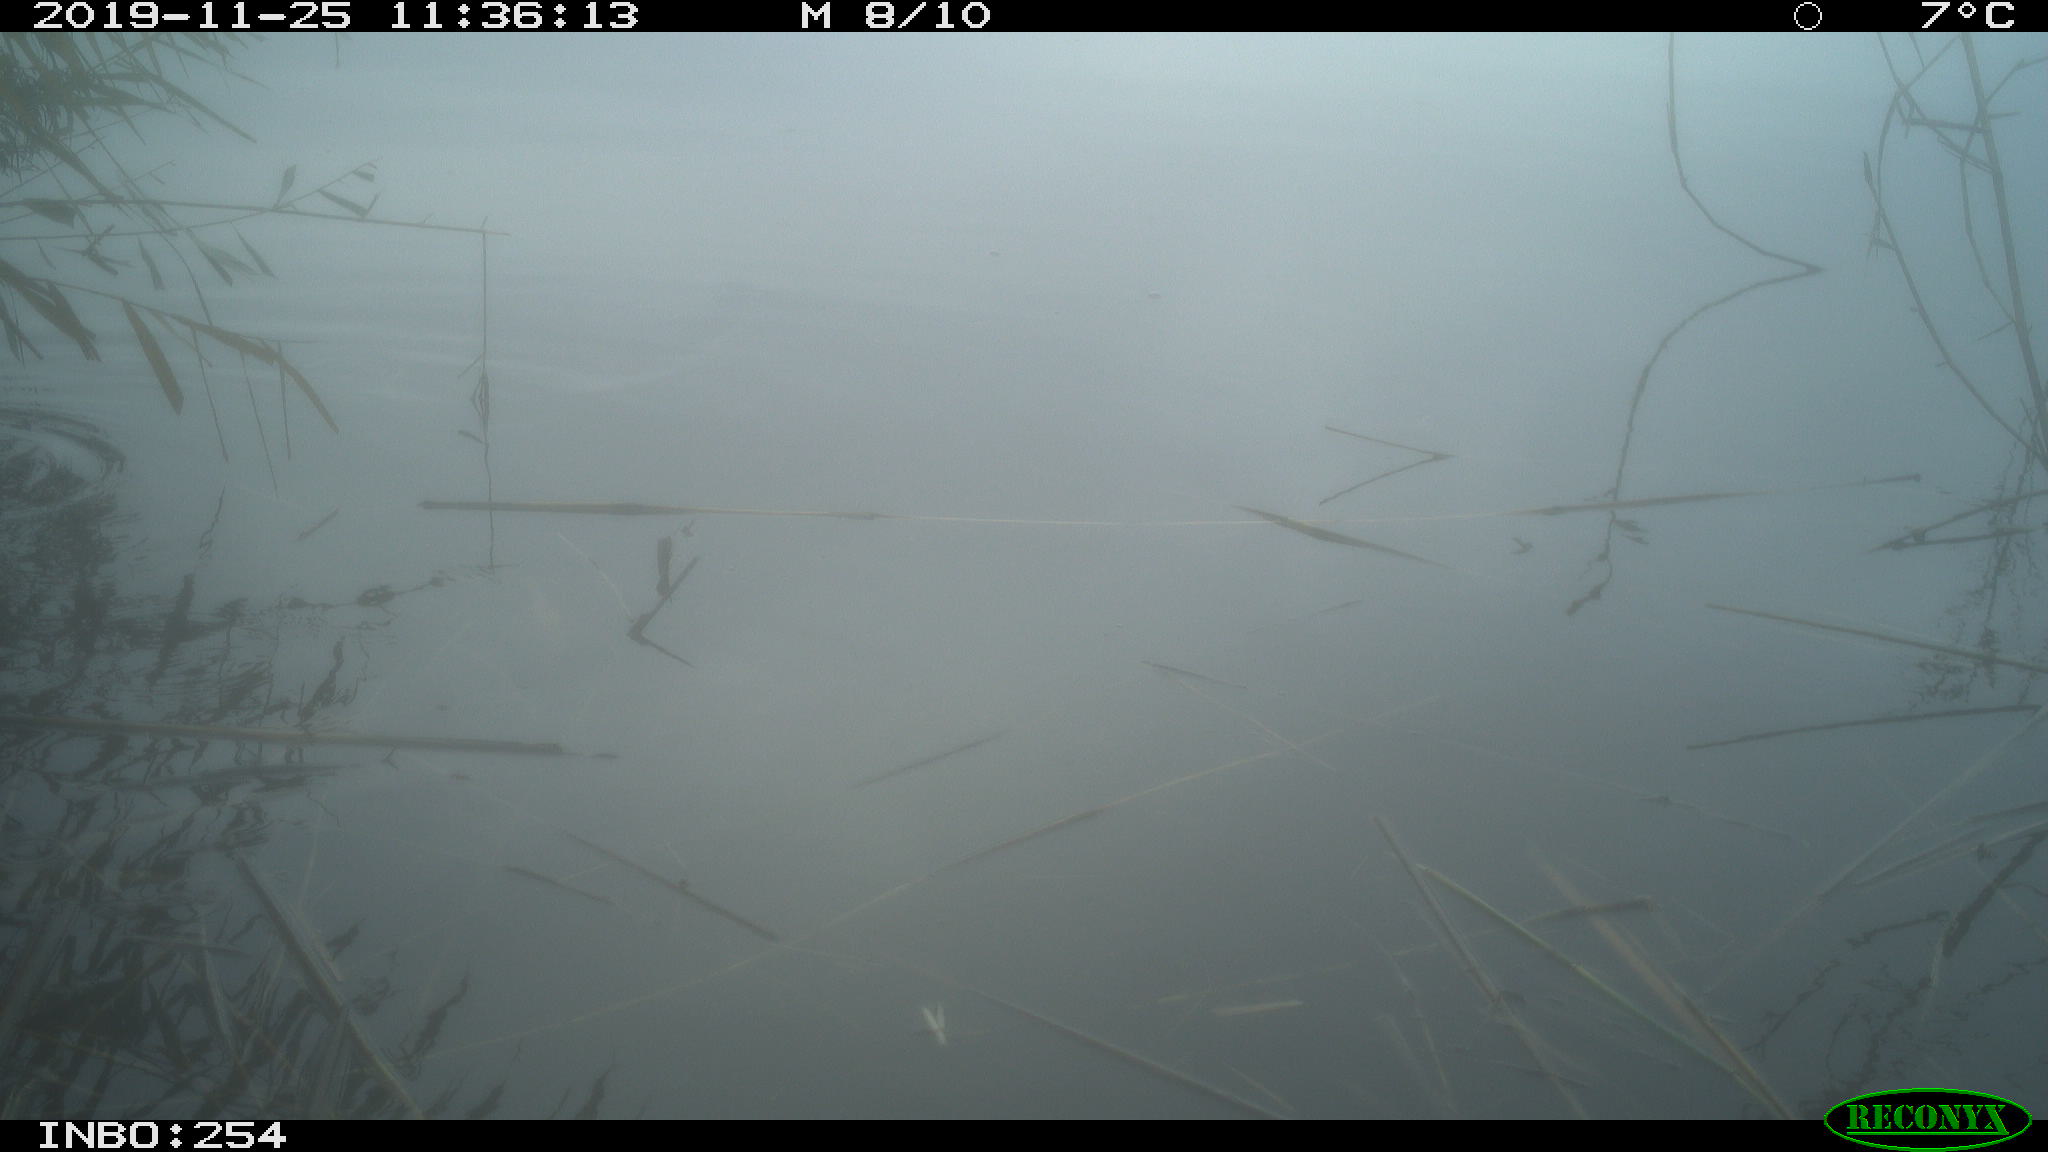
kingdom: Animalia
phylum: Chordata
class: Aves
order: Gruiformes
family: Rallidae
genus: Gallinula
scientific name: Gallinula chloropus
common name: Common moorhen
